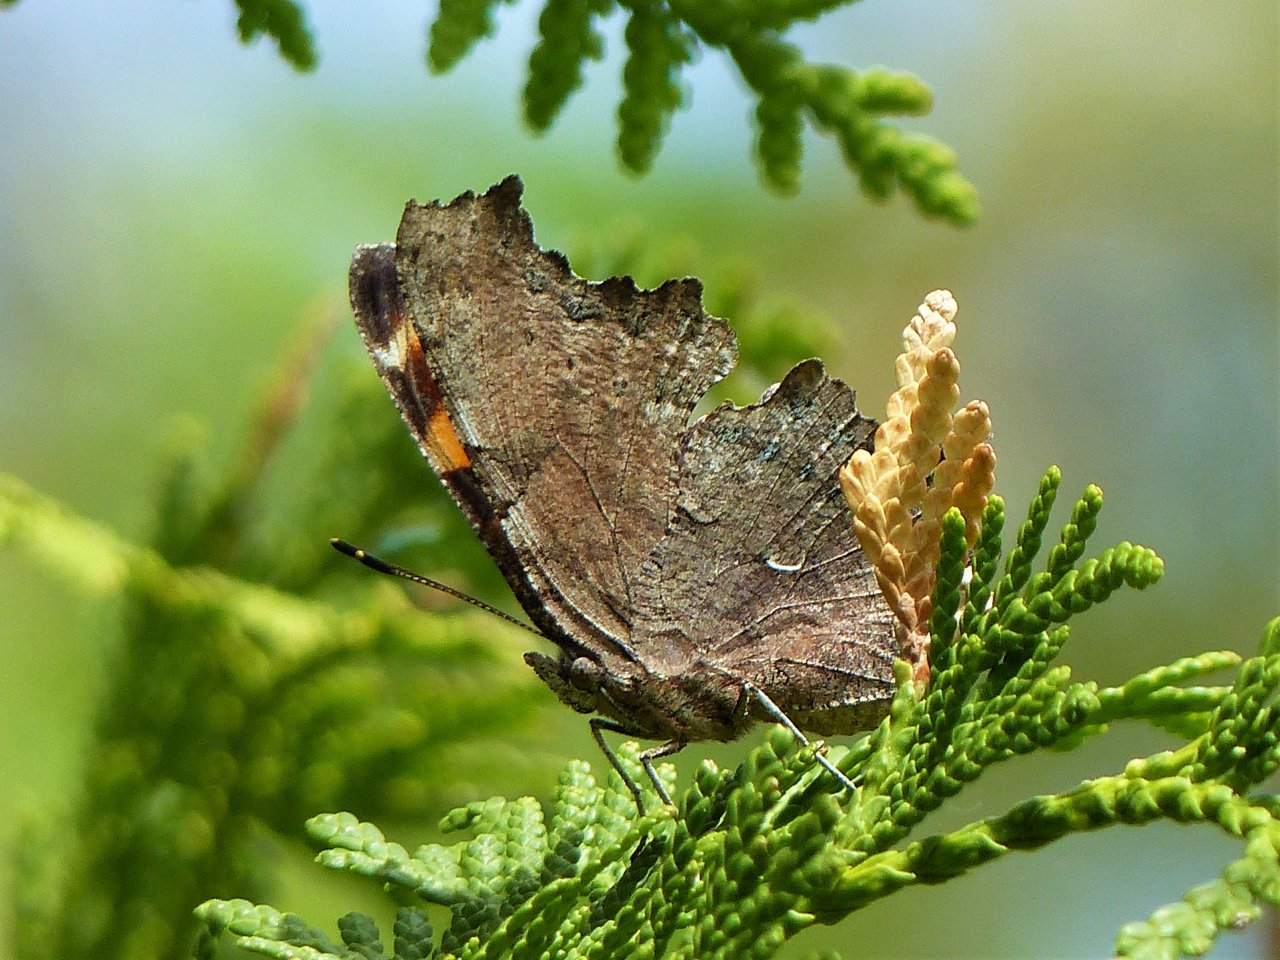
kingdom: Animalia
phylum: Arthropoda
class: Insecta
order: Lepidoptera
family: Nymphalidae
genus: Polygonia
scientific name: Polygonia faunus
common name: Green Comma
